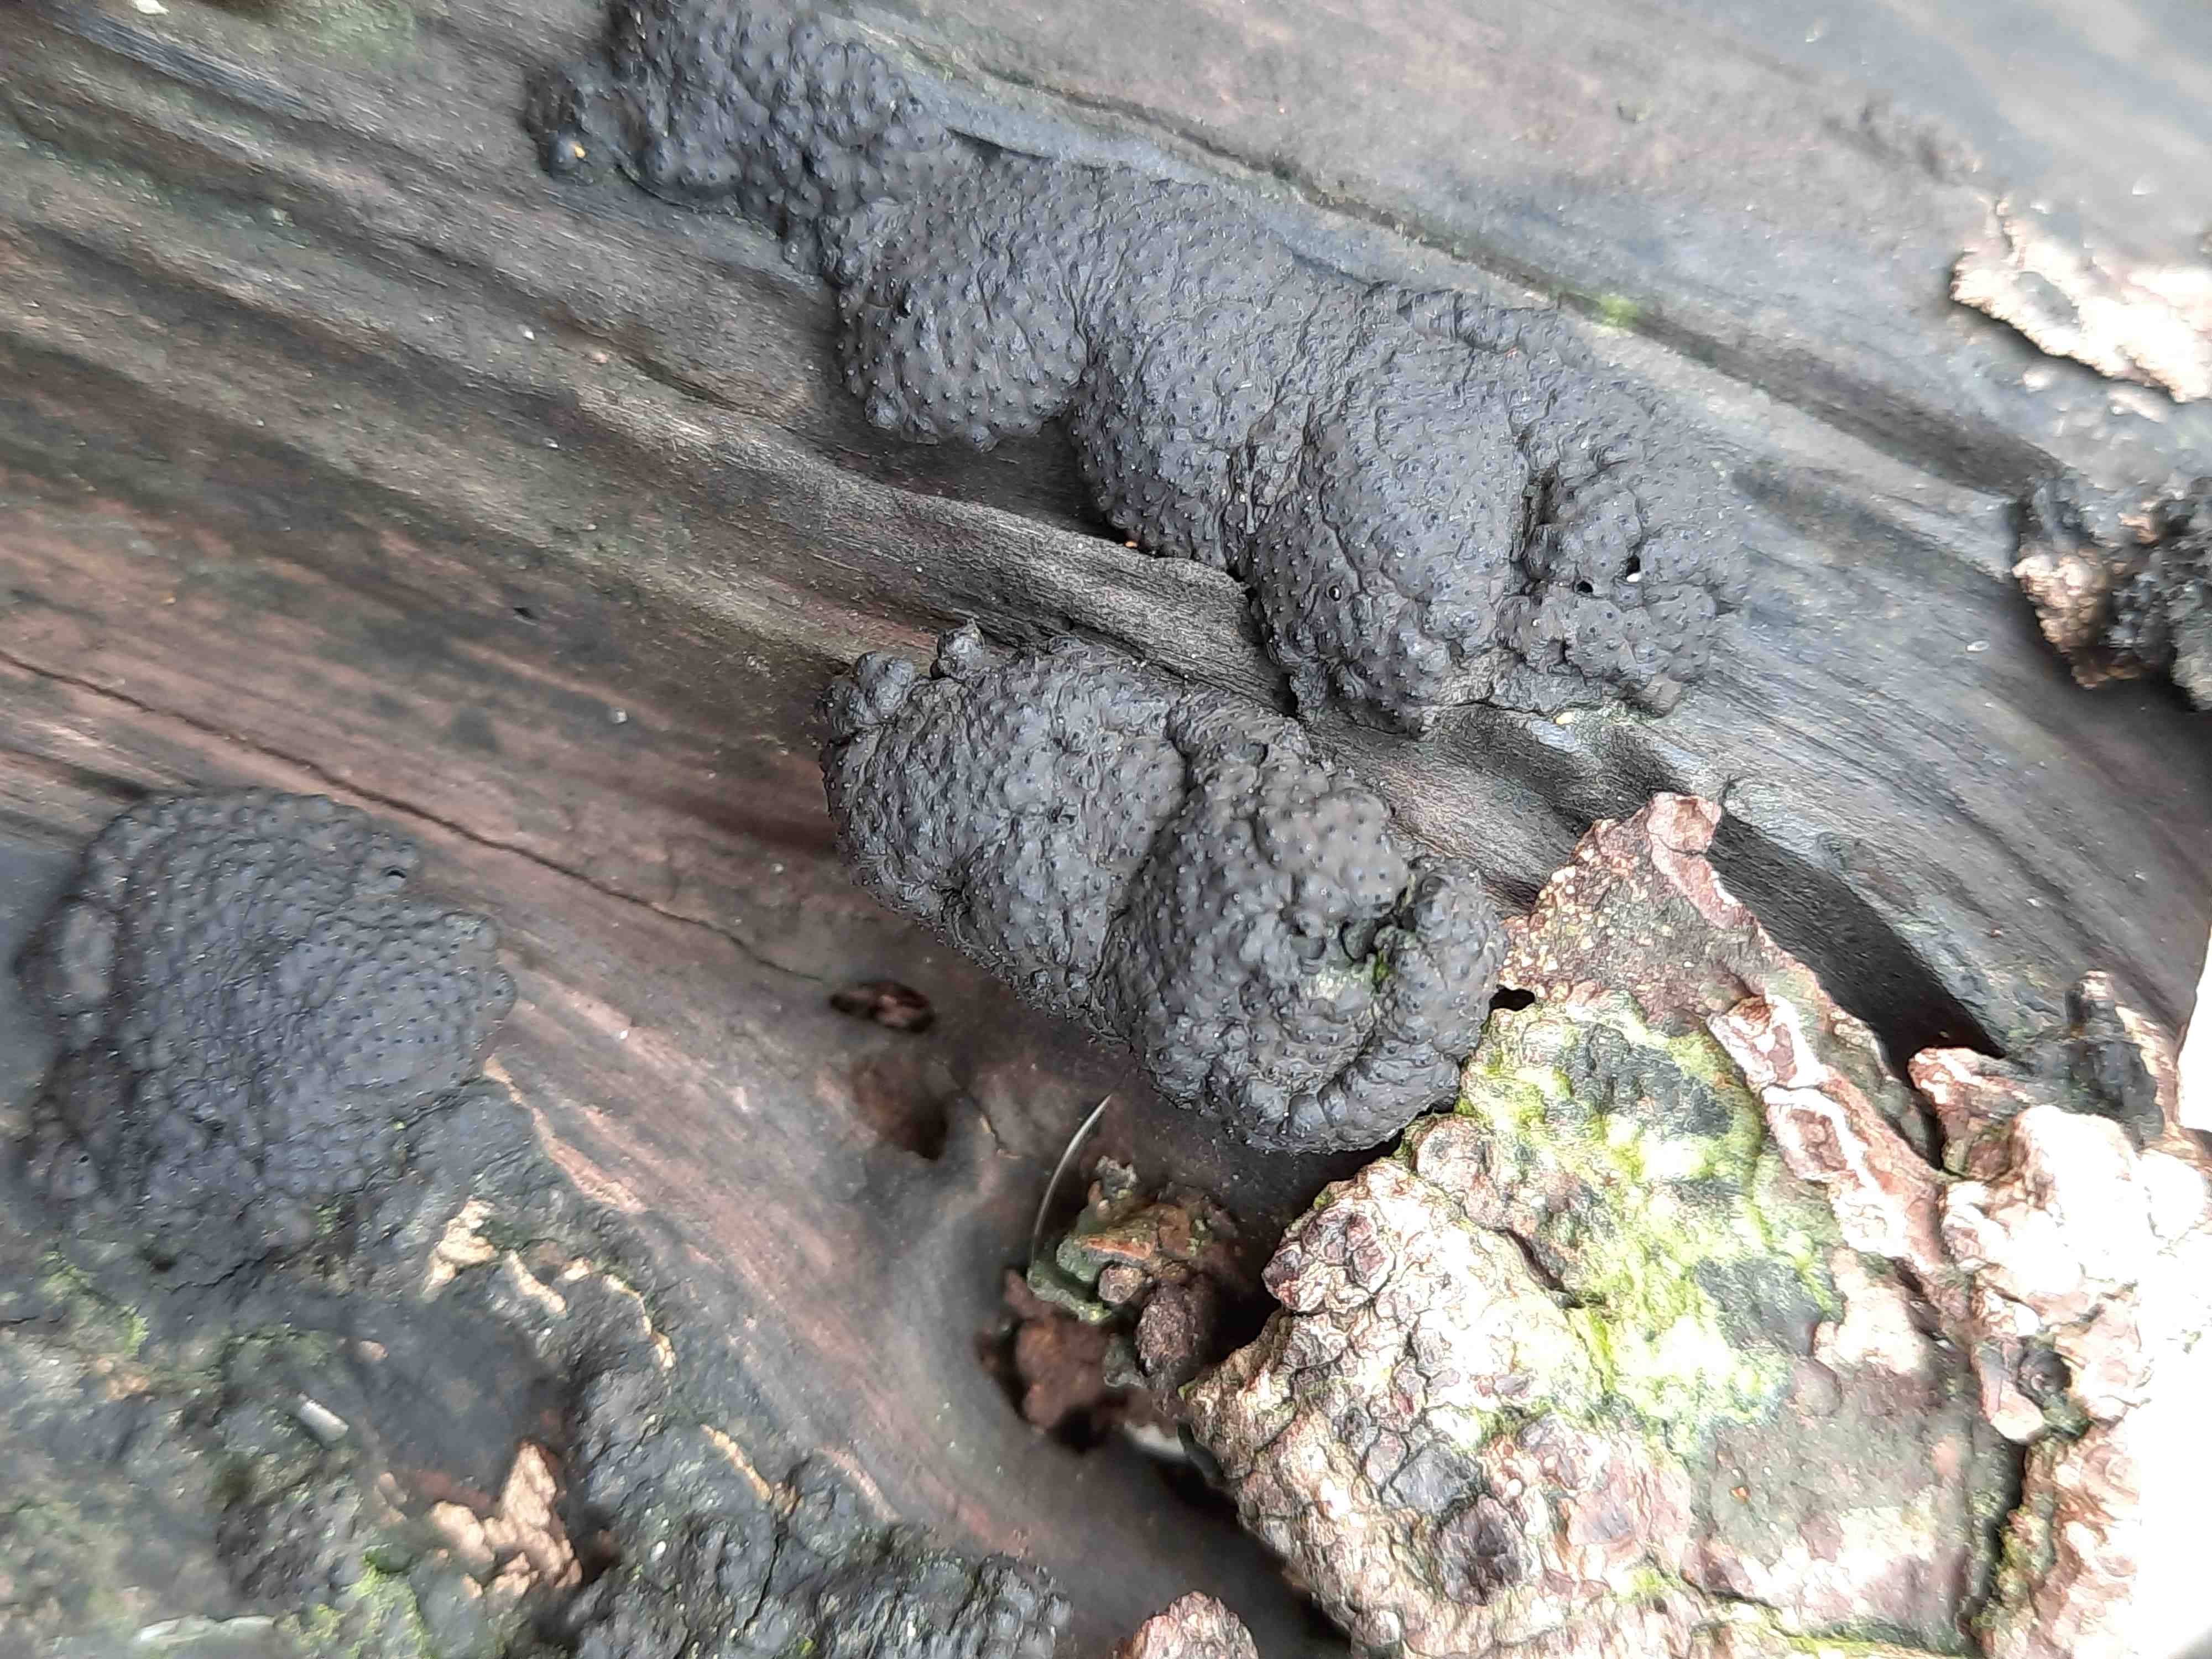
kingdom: Fungi
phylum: Ascomycota
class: Sordariomycetes
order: Xylariales
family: Hypoxylaceae
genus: Jackrogersella
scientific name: Jackrogersella multiformis
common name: foranderlig kulbær
